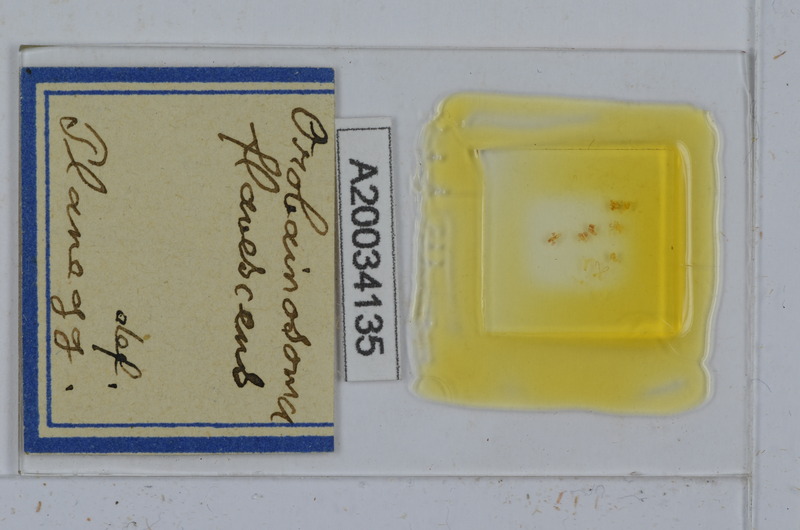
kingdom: Animalia
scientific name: Animalia
